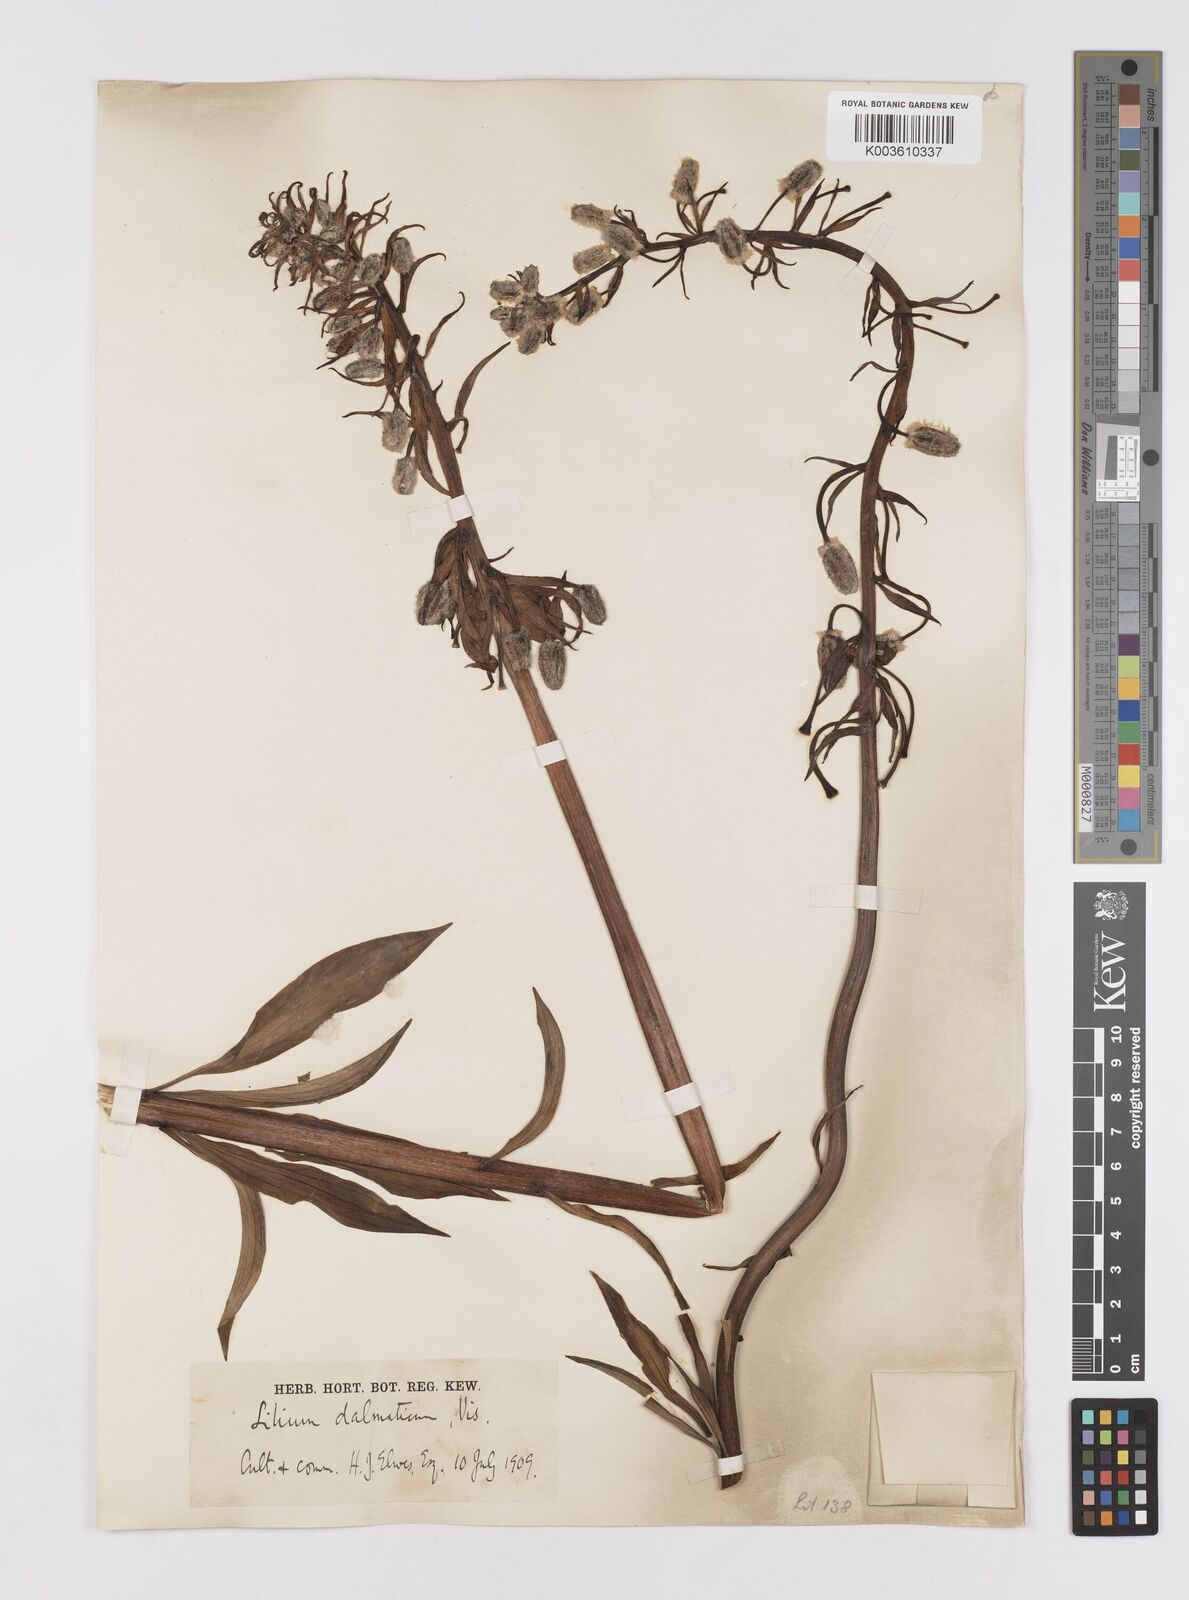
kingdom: Plantae
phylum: Tracheophyta
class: Liliopsida
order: Liliales
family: Liliaceae
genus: Lilium
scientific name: Lilium martagon
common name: Martagon lily
